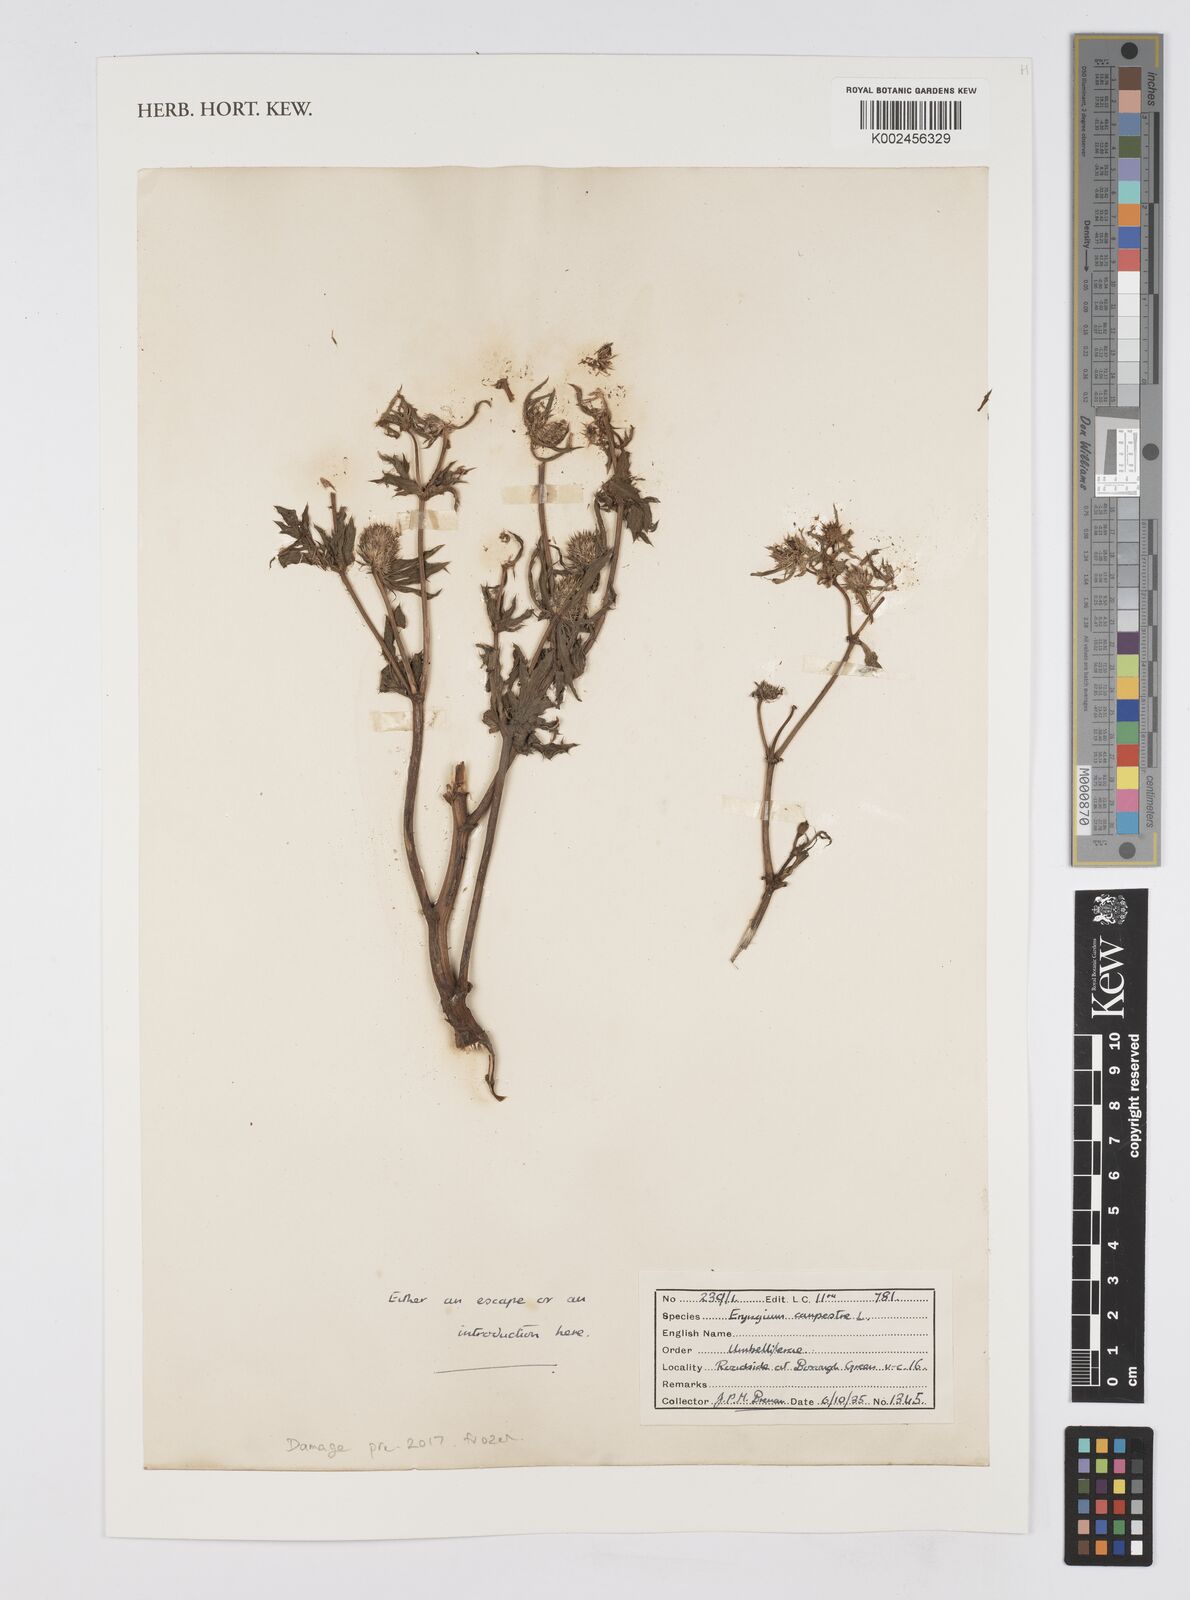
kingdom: Plantae
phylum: Tracheophyta
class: Magnoliopsida
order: Apiales
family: Apiaceae
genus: Eryngium
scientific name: Eryngium campestre
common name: Field eryngo
